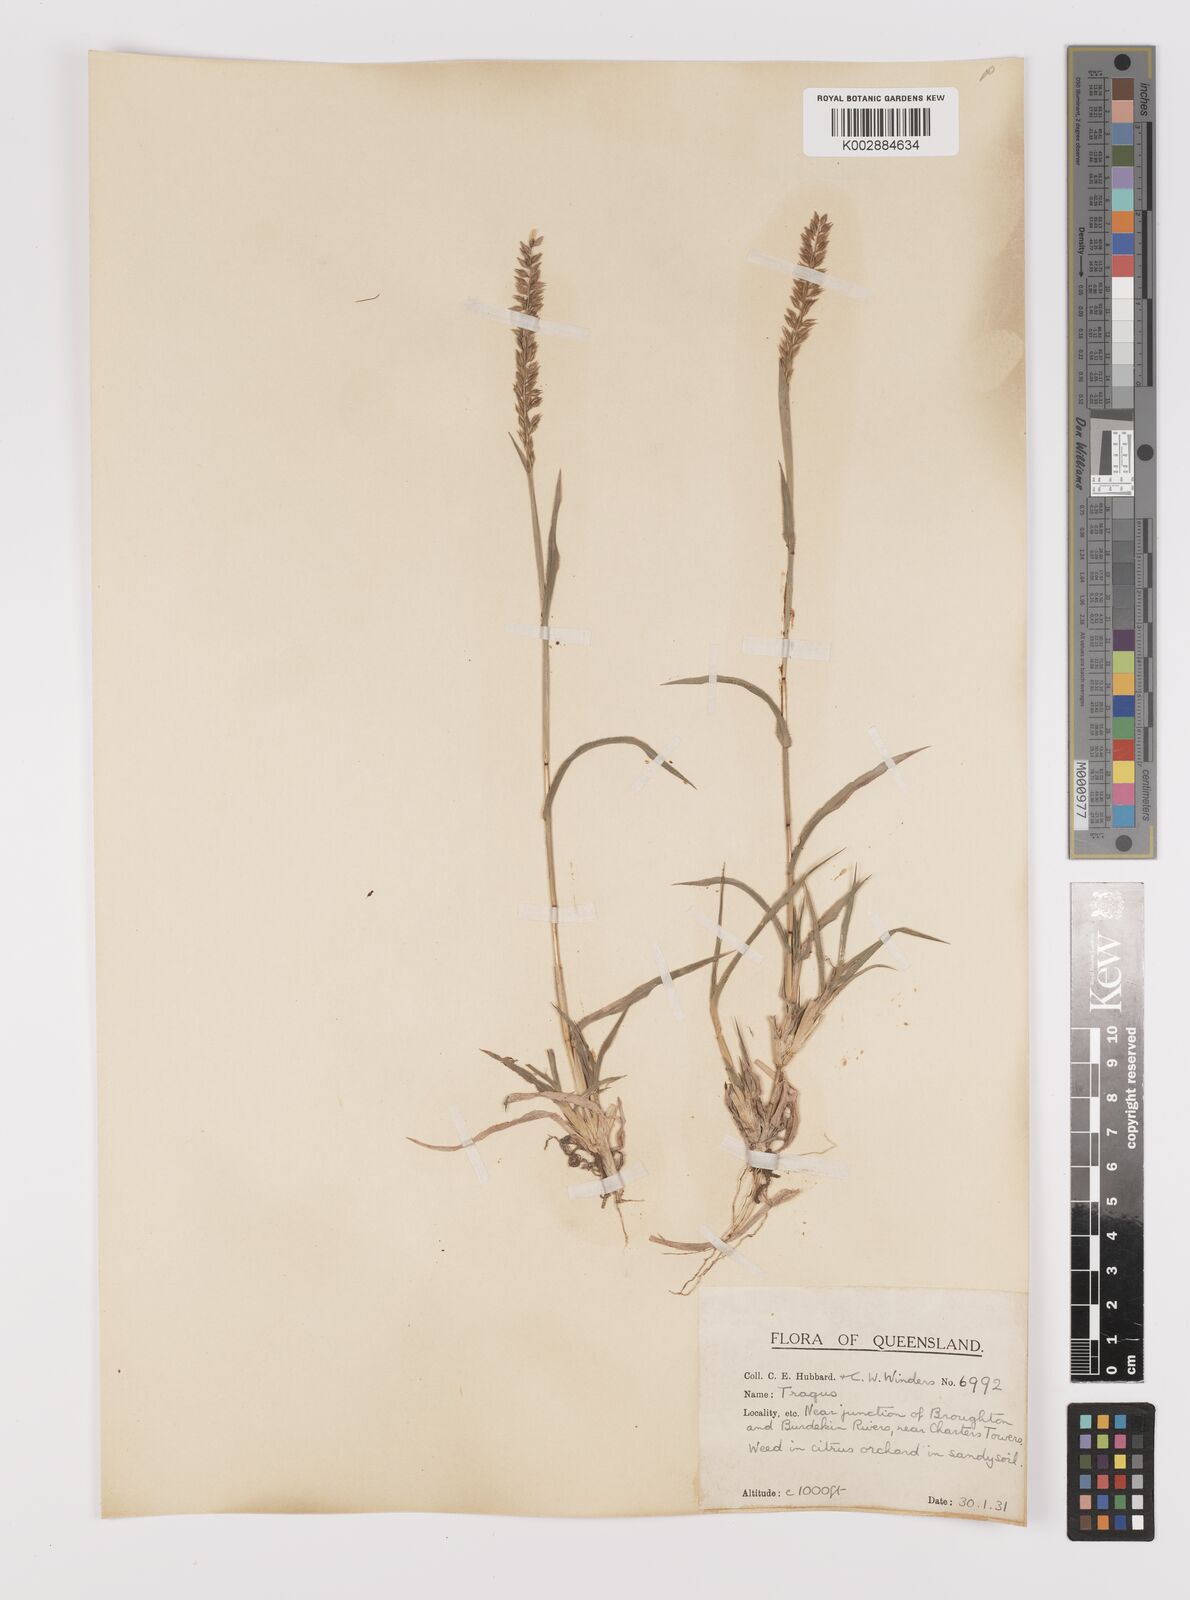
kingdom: Plantae
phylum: Tracheophyta
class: Liliopsida
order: Poales
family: Poaceae
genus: Tragus
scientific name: Tragus australianus
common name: Australian bur-grass
